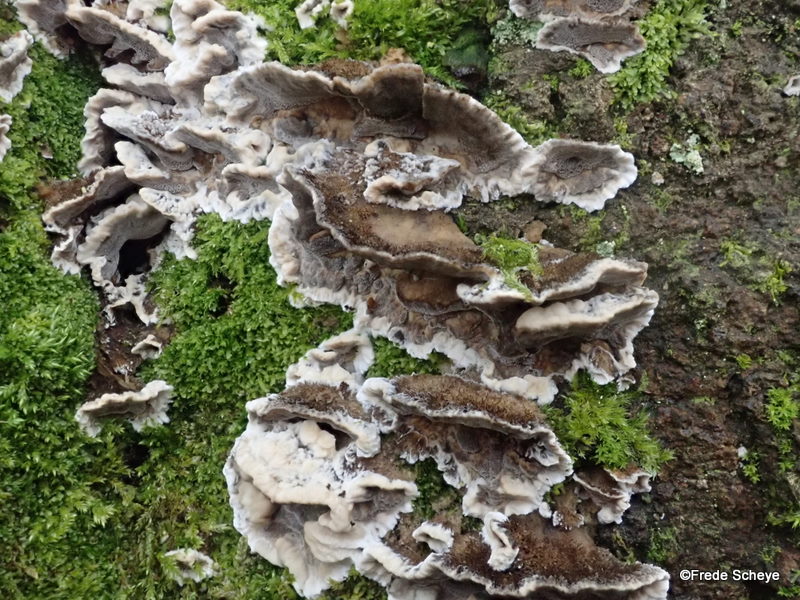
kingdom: Fungi
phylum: Basidiomycota
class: Agaricomycetes
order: Polyporales
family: Phanerochaetaceae
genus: Bjerkandera
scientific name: Bjerkandera adusta
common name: sveden sodporesvamp
